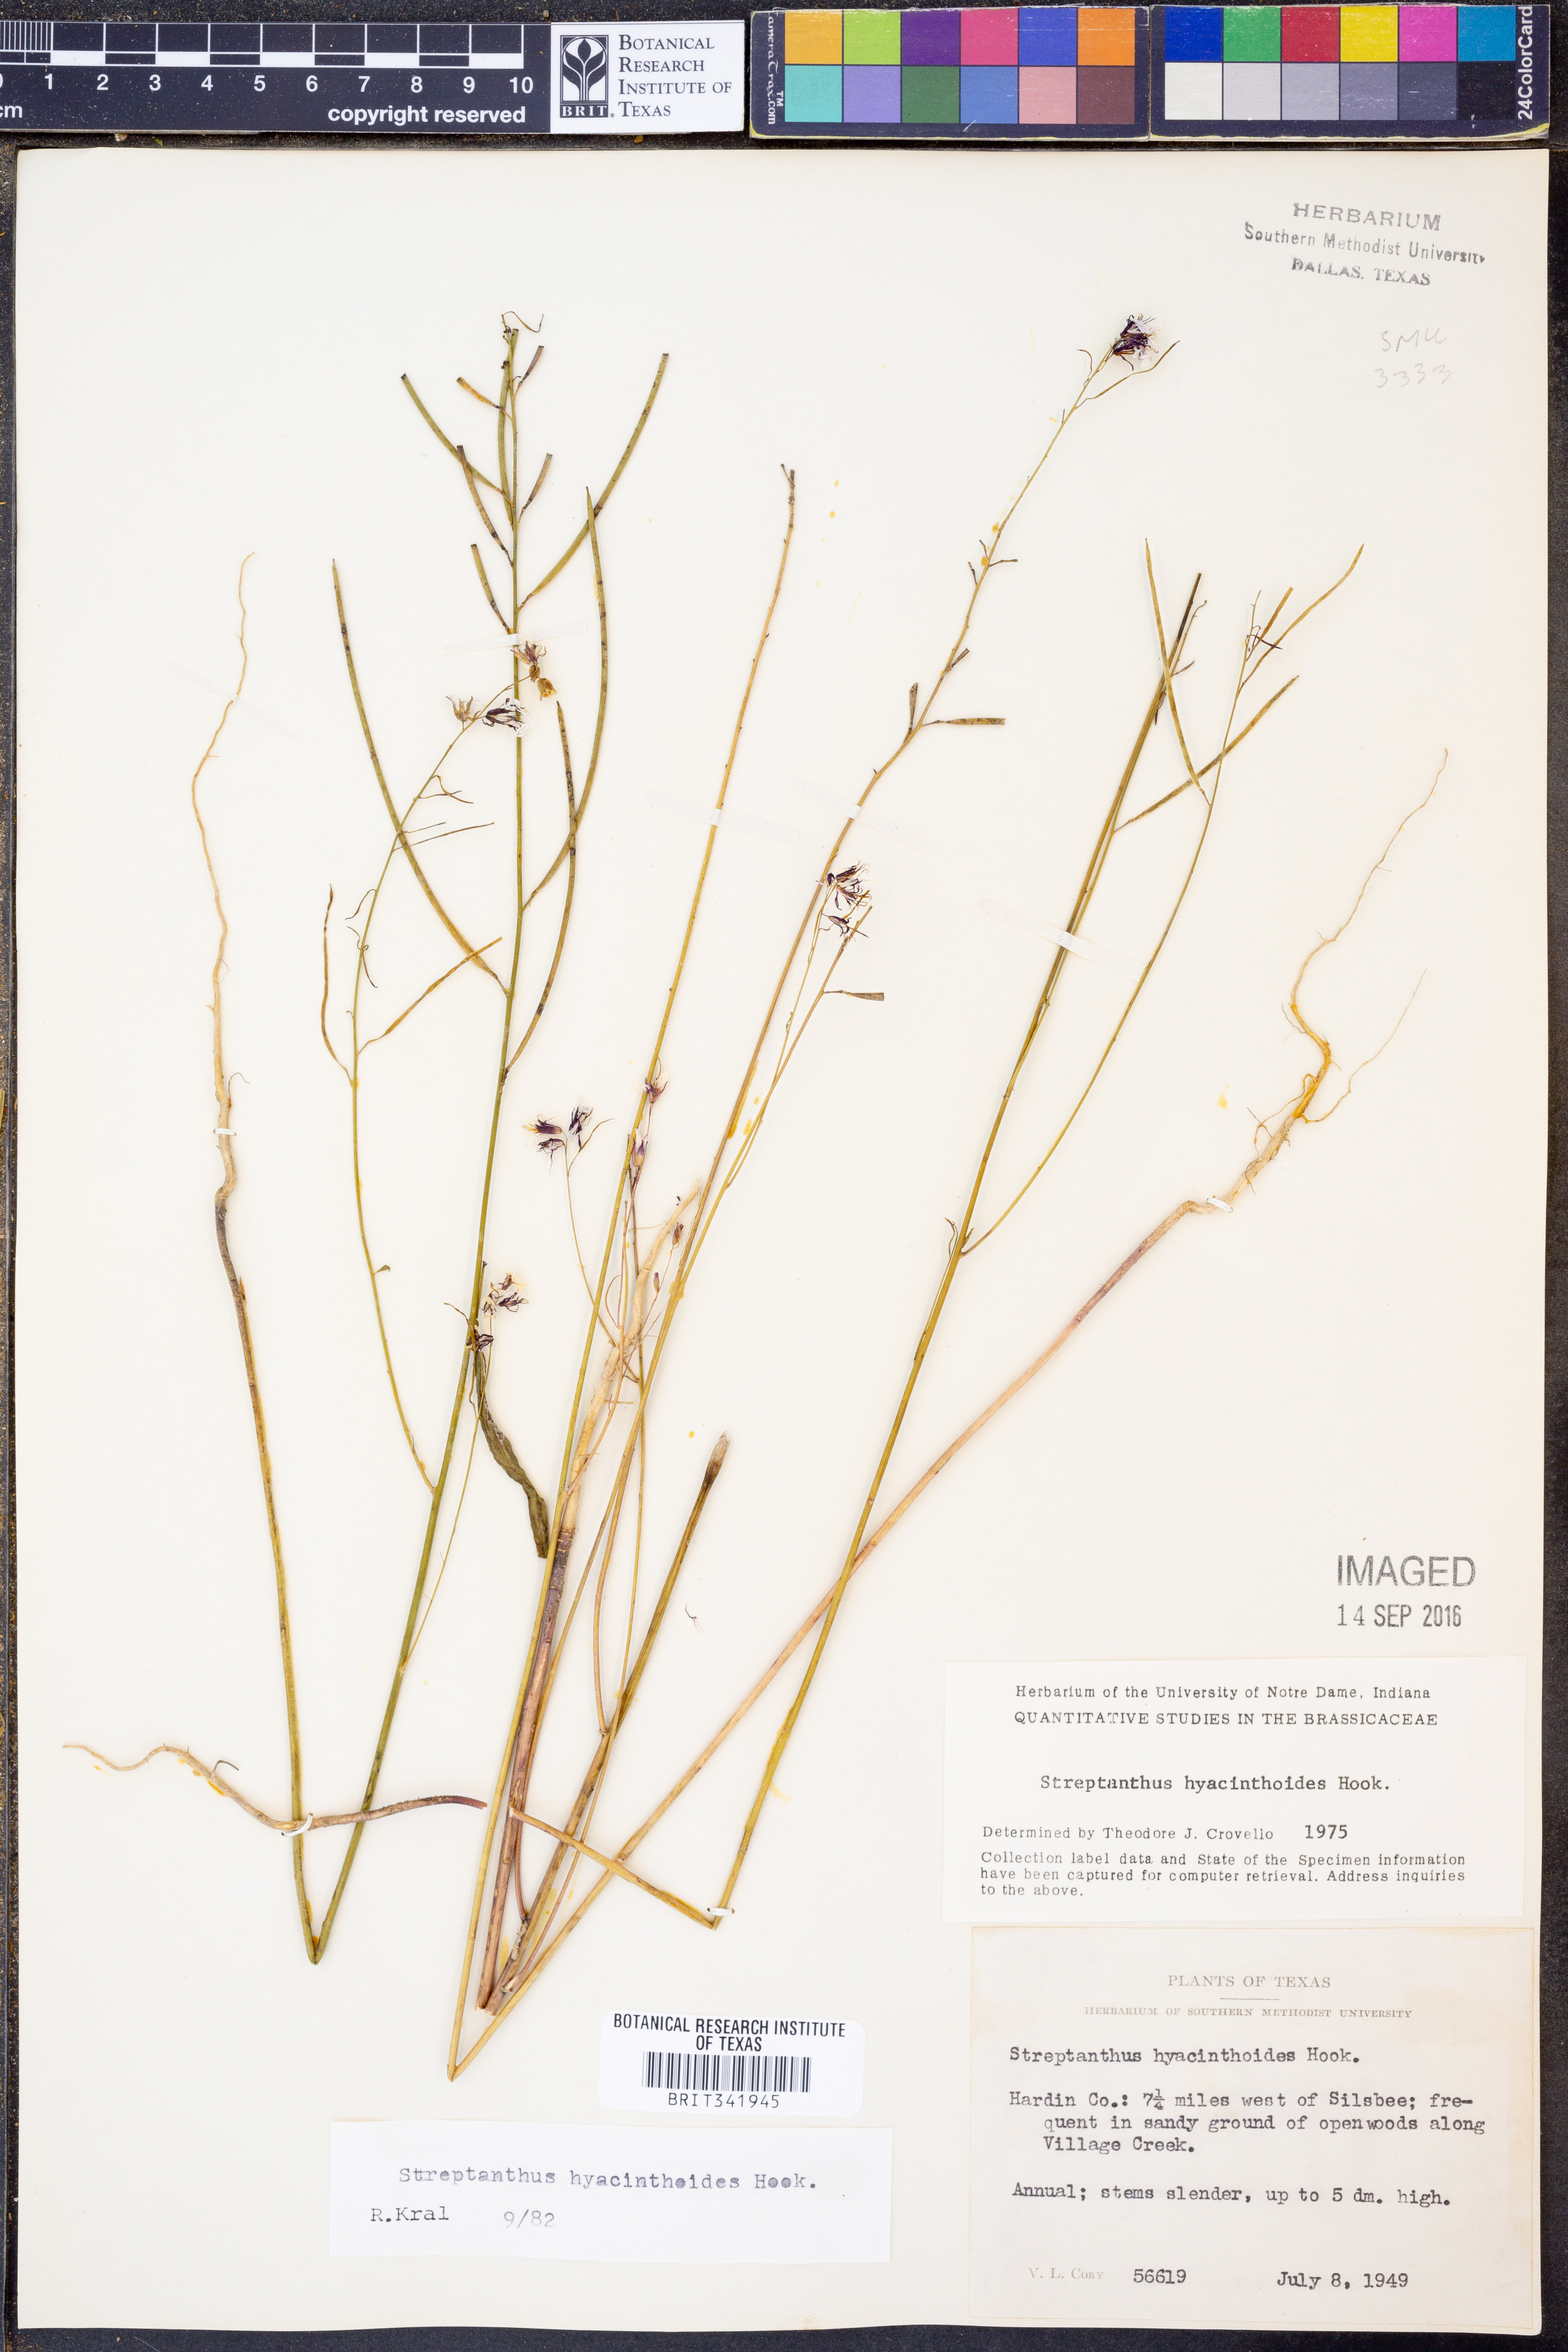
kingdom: Plantae
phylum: Tracheophyta
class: Magnoliopsida
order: Brassicales
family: Brassicaceae
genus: Streptanthus
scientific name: Streptanthus hyacinthoides
